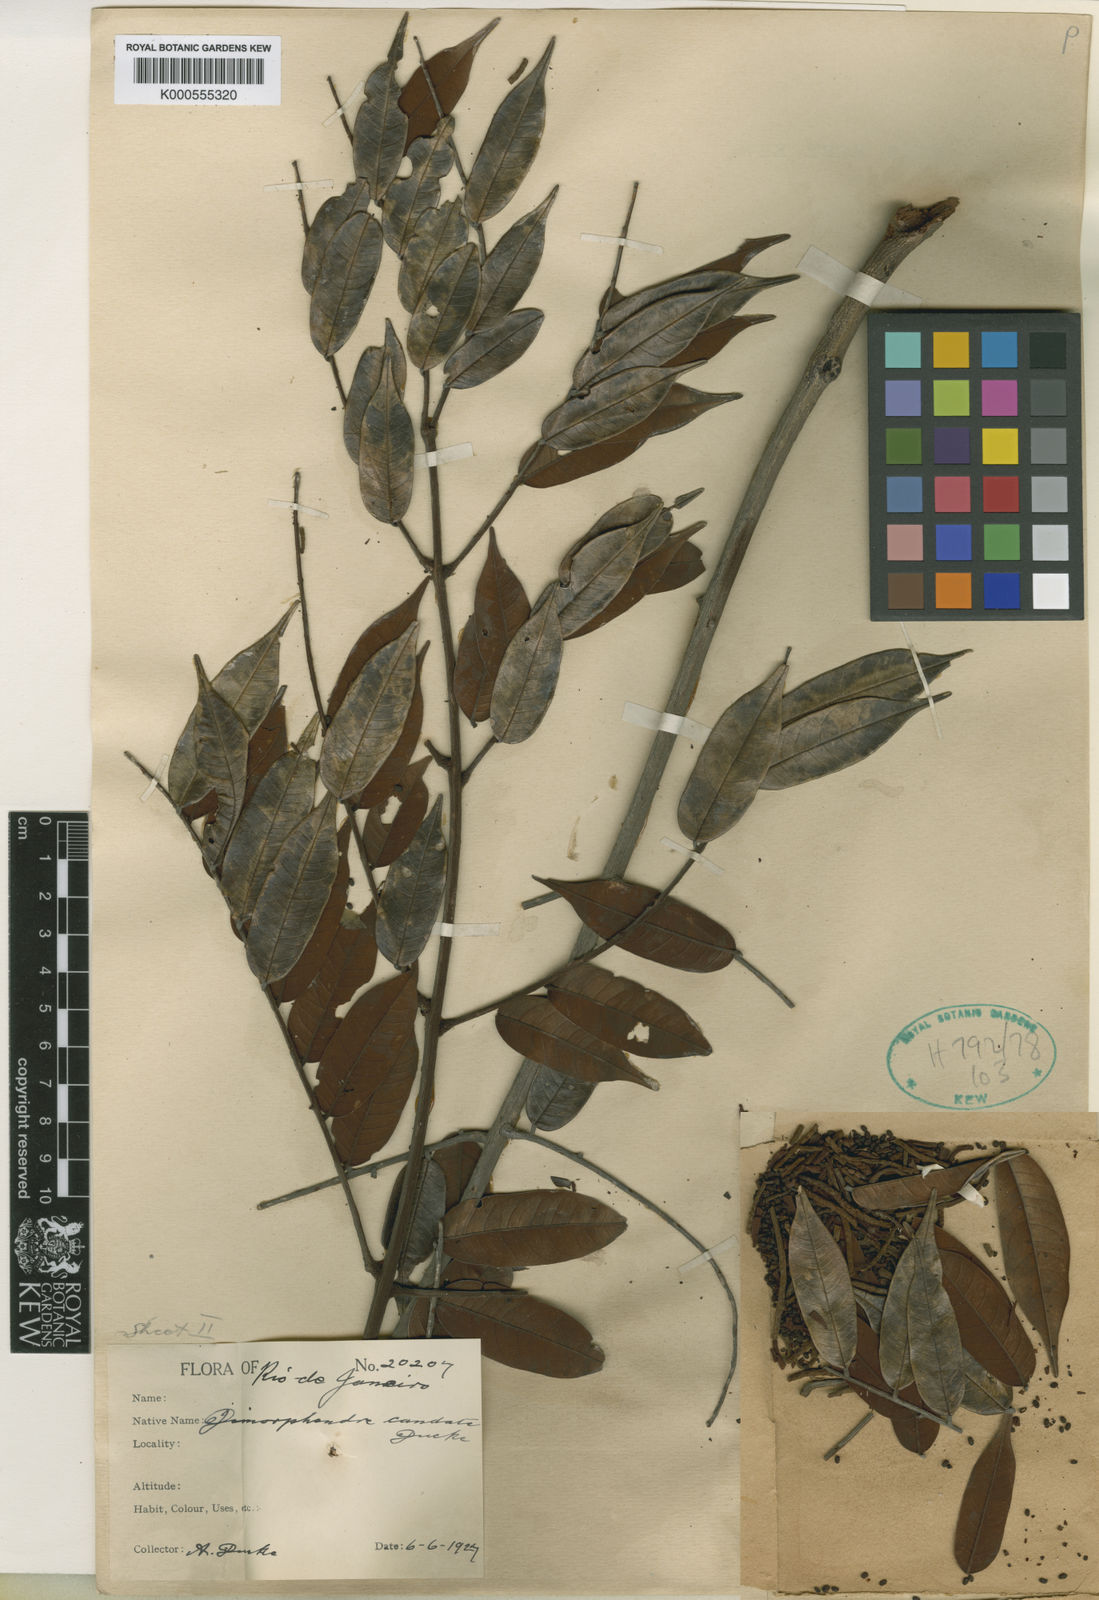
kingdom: Plantae
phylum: Tracheophyta
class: Magnoliopsida
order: Fabales
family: Fabaceae
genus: Dimorphandra
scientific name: Dimorphandra caudata
